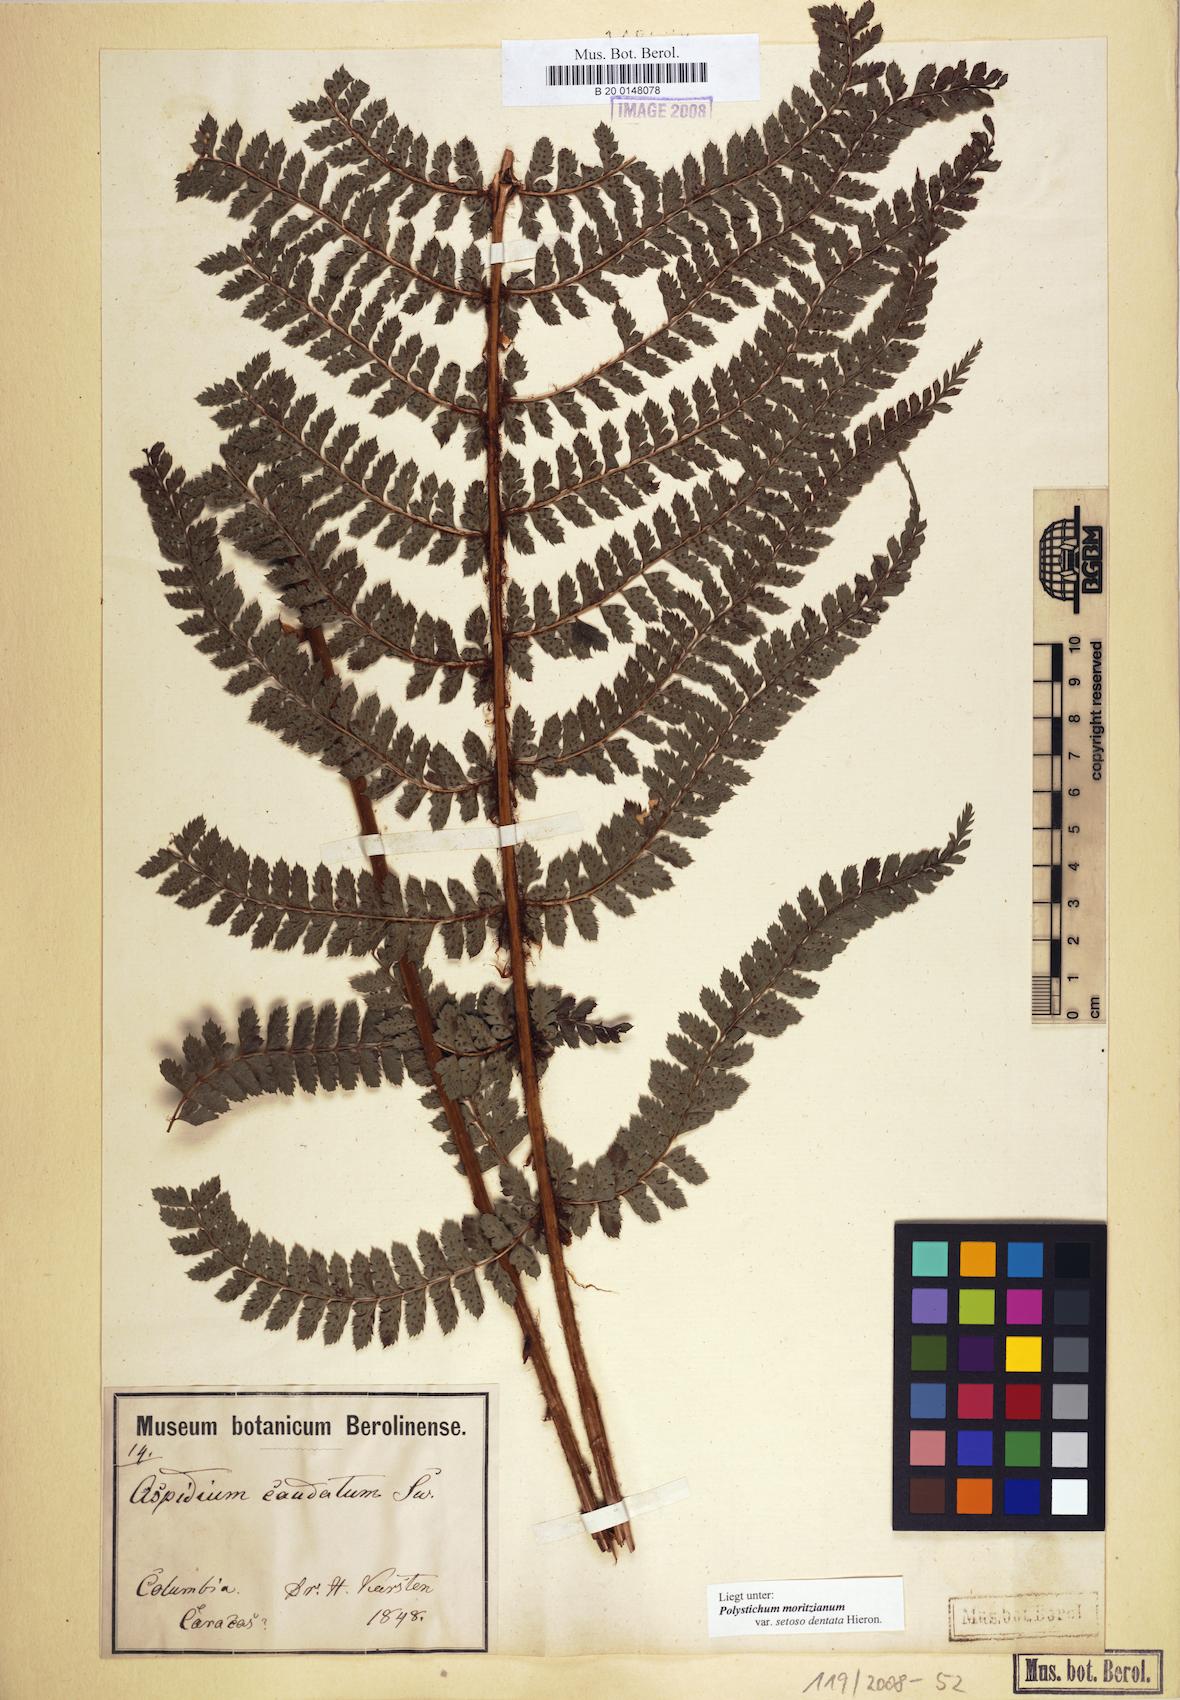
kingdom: Plantae
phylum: Tracheophyta
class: Polypodiopsida
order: Polypodiales
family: Dryopteridaceae
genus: Polystichum
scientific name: Polystichum muricatum
